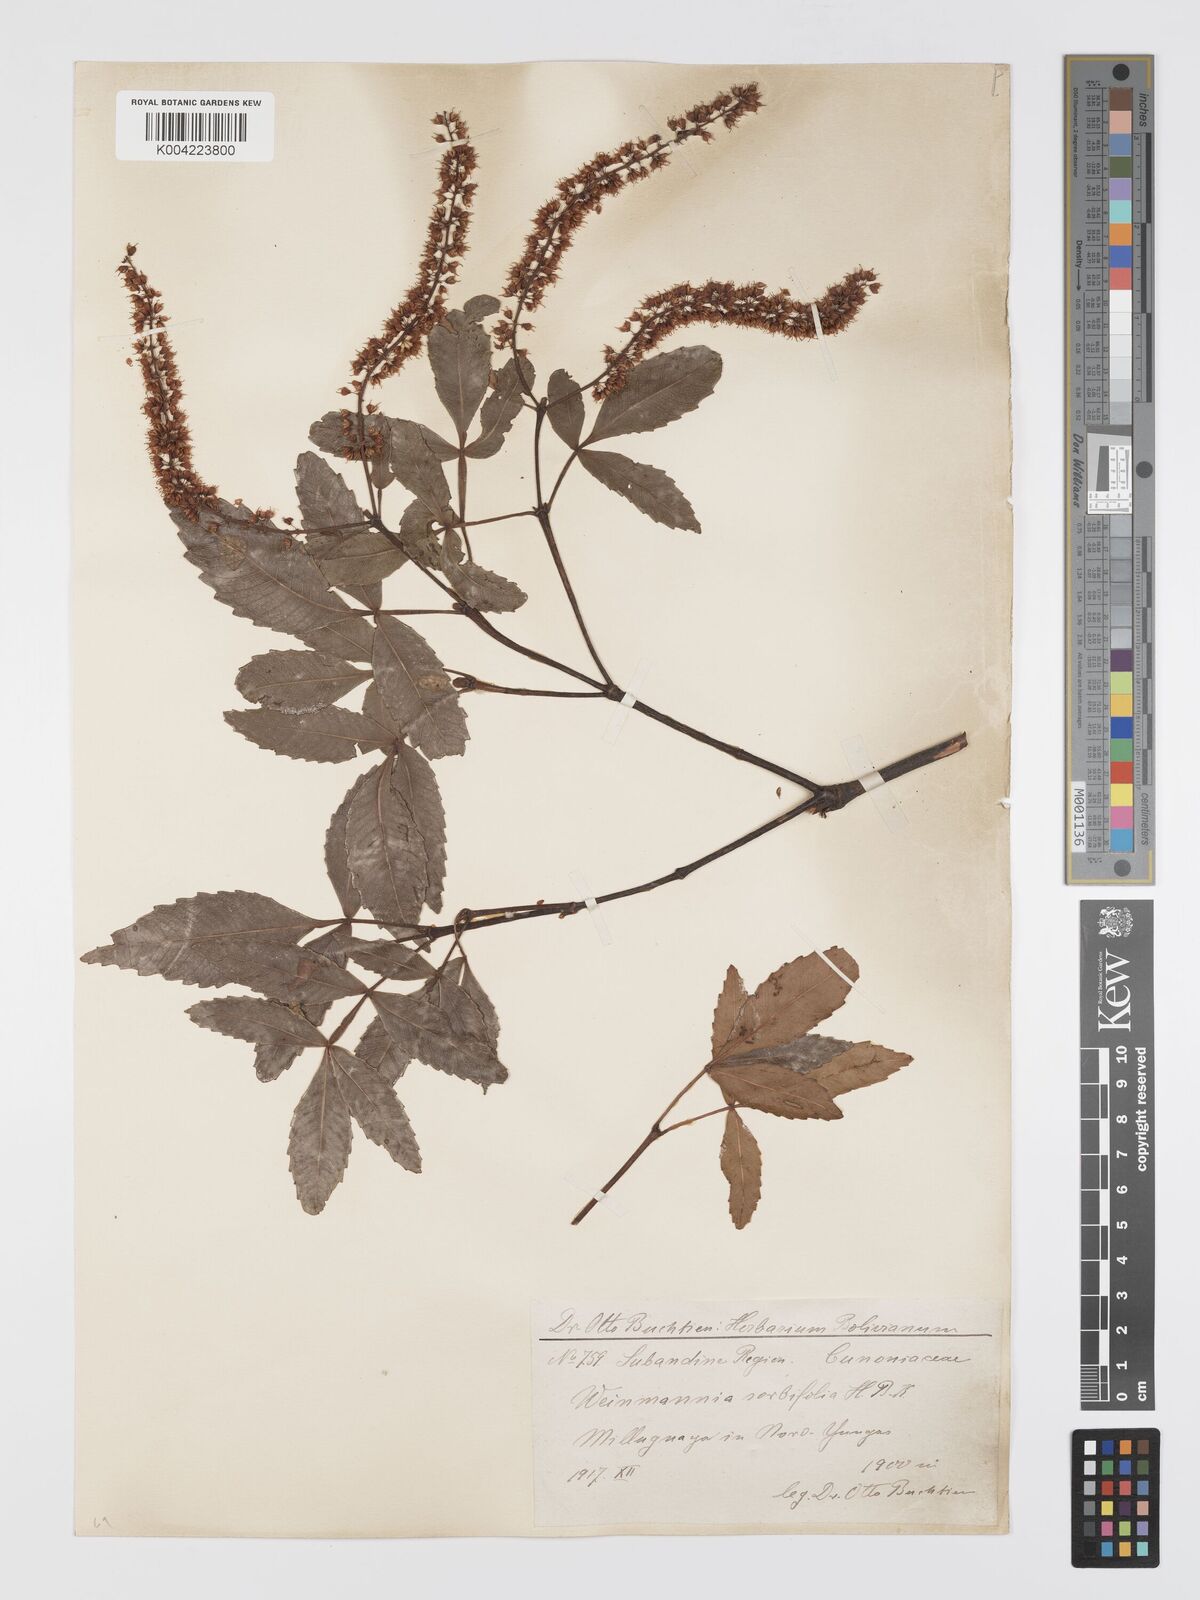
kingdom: Plantae
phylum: Tracheophyta
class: Magnoliopsida
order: Oxalidales
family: Cunoniaceae
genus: Weinmannia
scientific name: Weinmannia boliviensis
